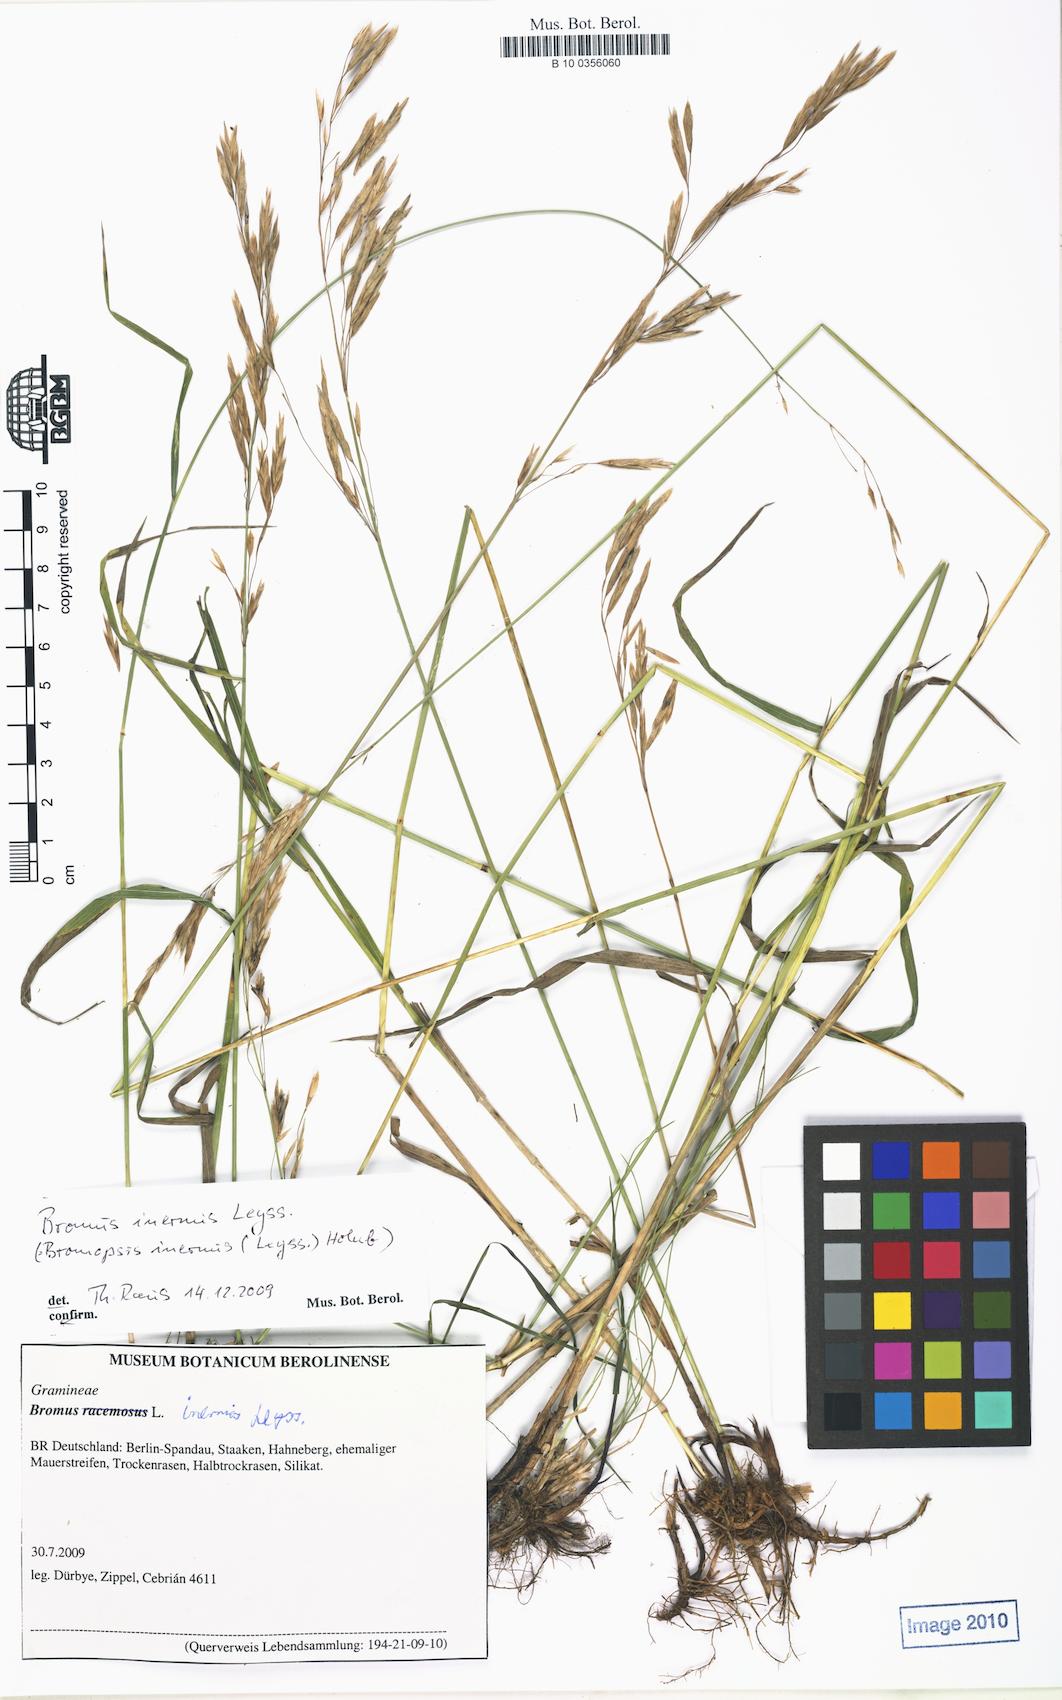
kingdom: Plantae
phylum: Tracheophyta
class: Liliopsida
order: Poales
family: Poaceae
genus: Bromus
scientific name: Bromus inermis
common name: Smooth brome
